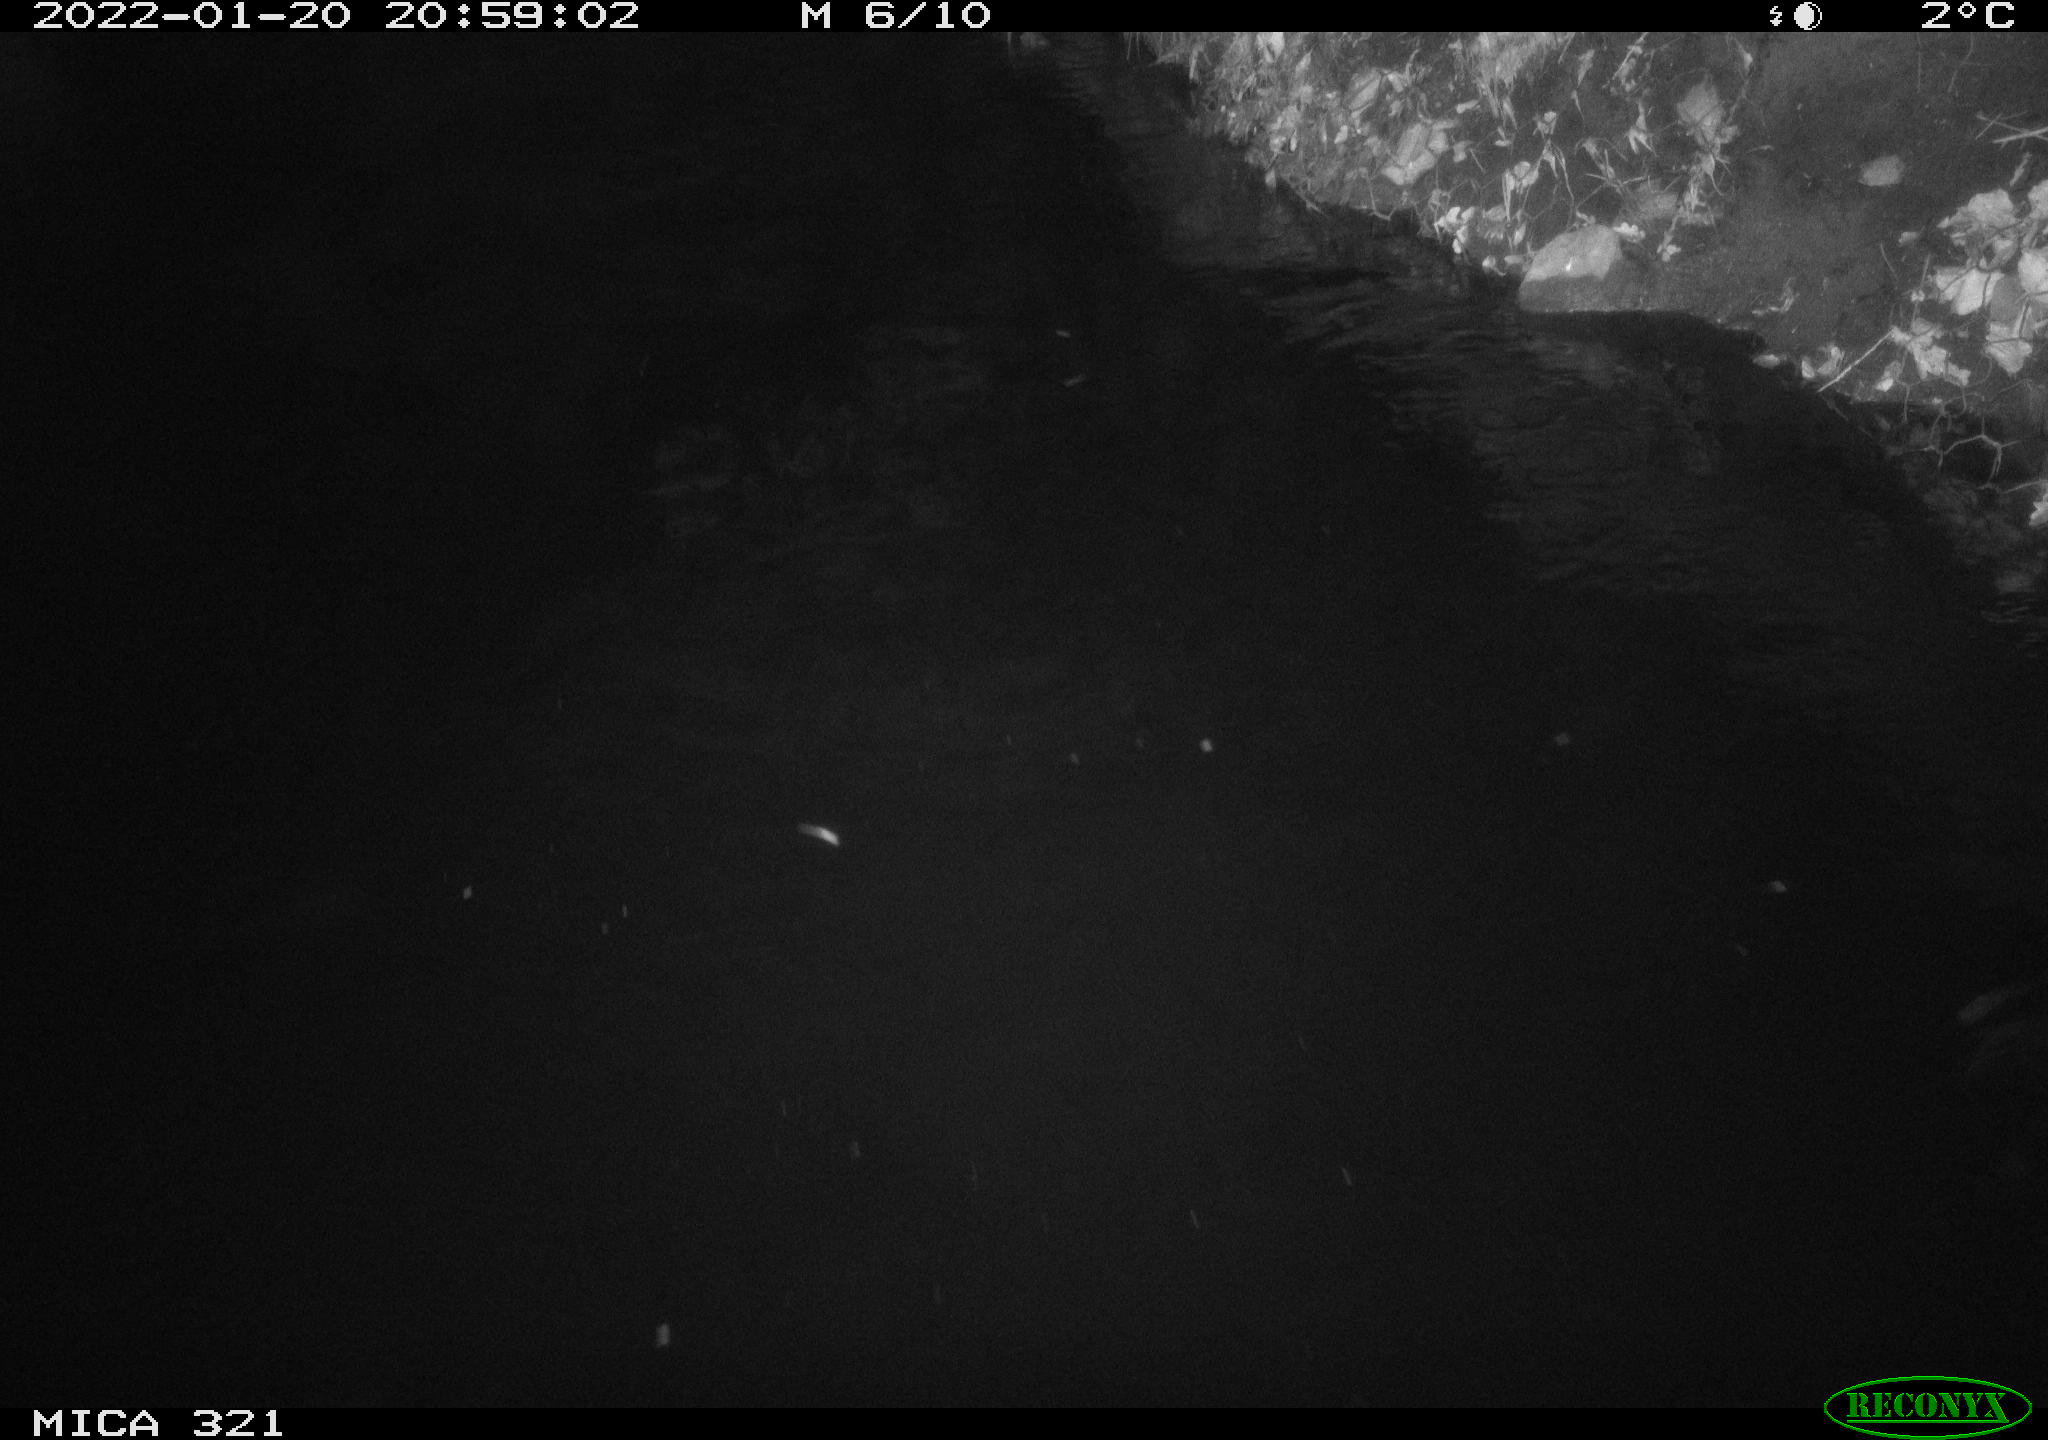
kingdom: Animalia
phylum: Chordata
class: Aves
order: Anseriformes
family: Anatidae
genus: Anas
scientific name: Anas
